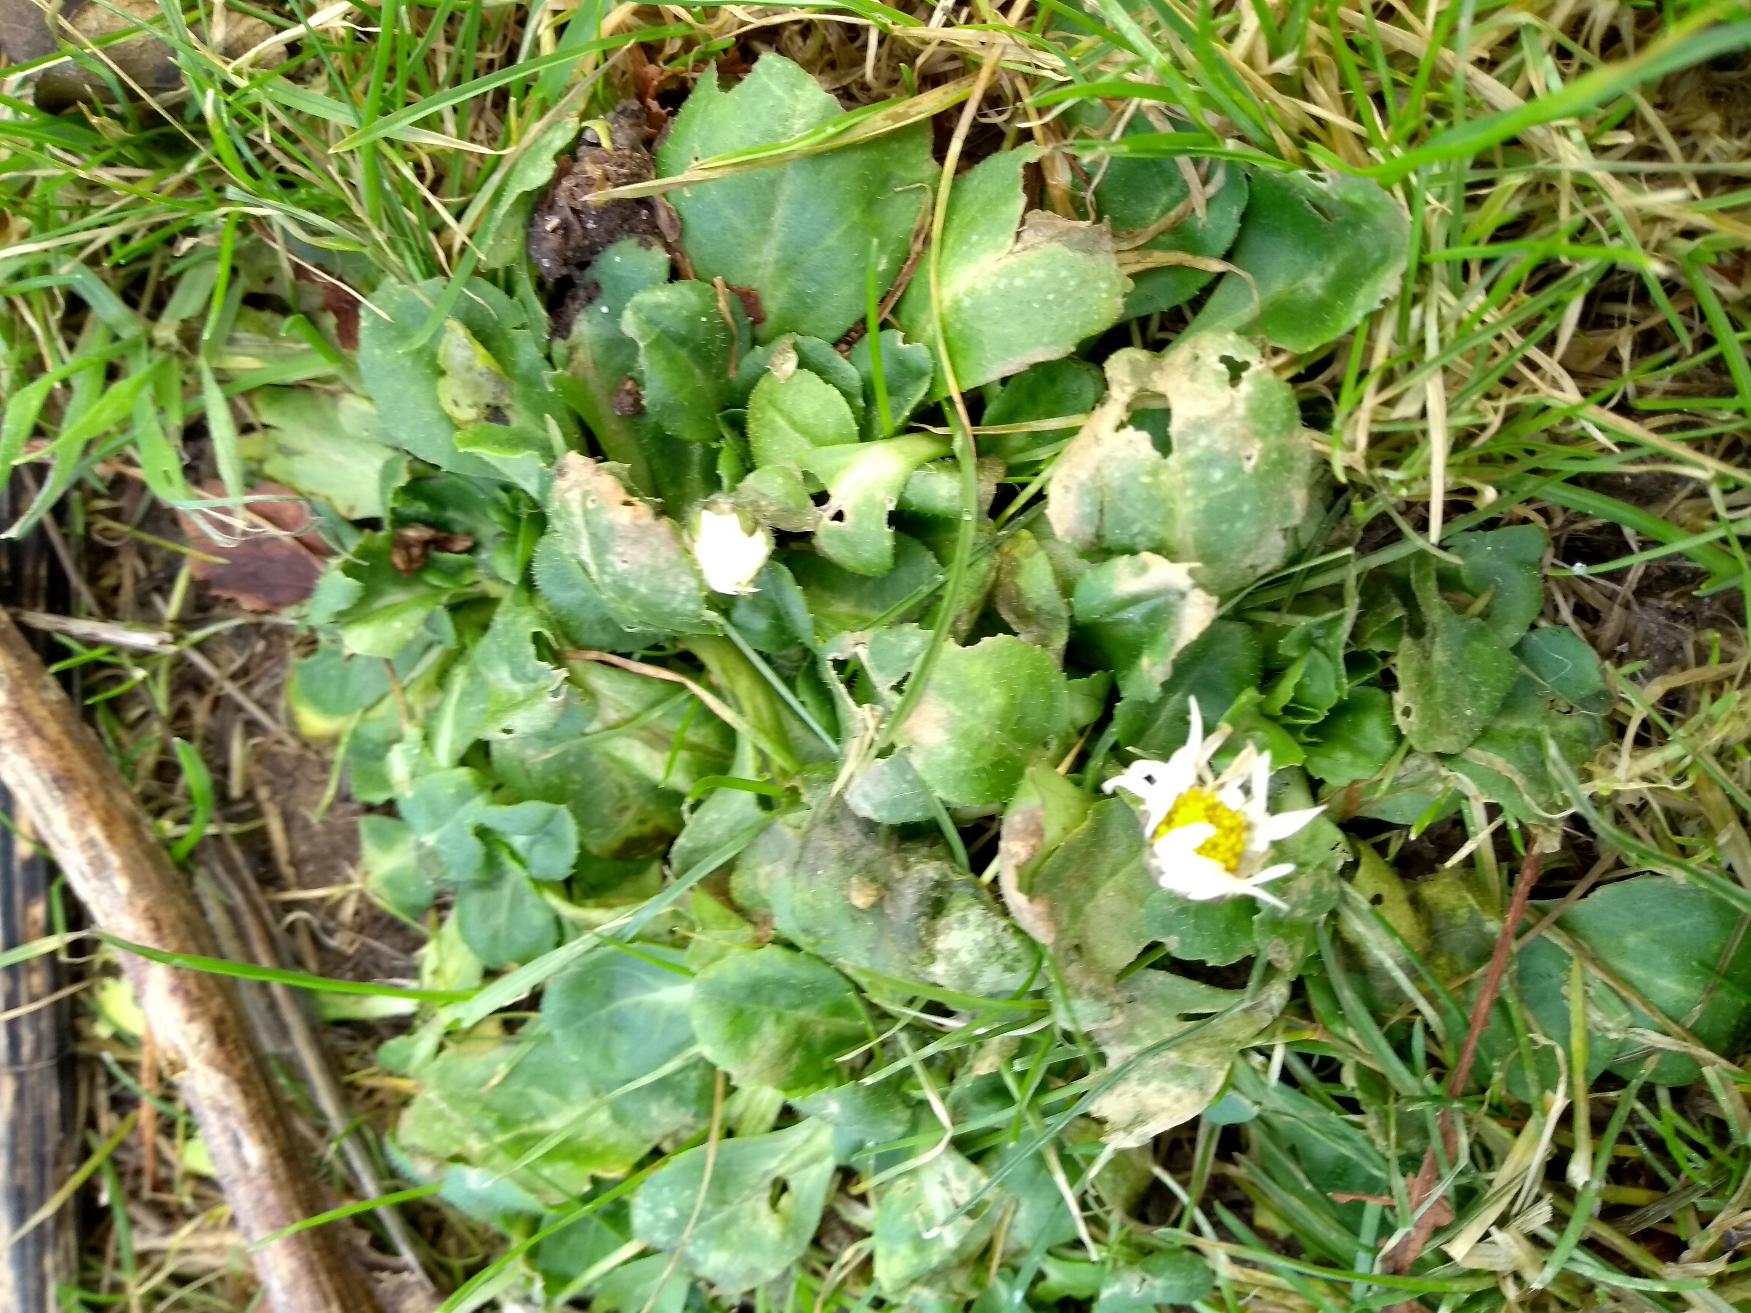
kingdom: Plantae
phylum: Tracheophyta
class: Magnoliopsida
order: Asterales
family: Asteraceae
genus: Bellis
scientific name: Bellis perennis
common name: Tusindfryd
